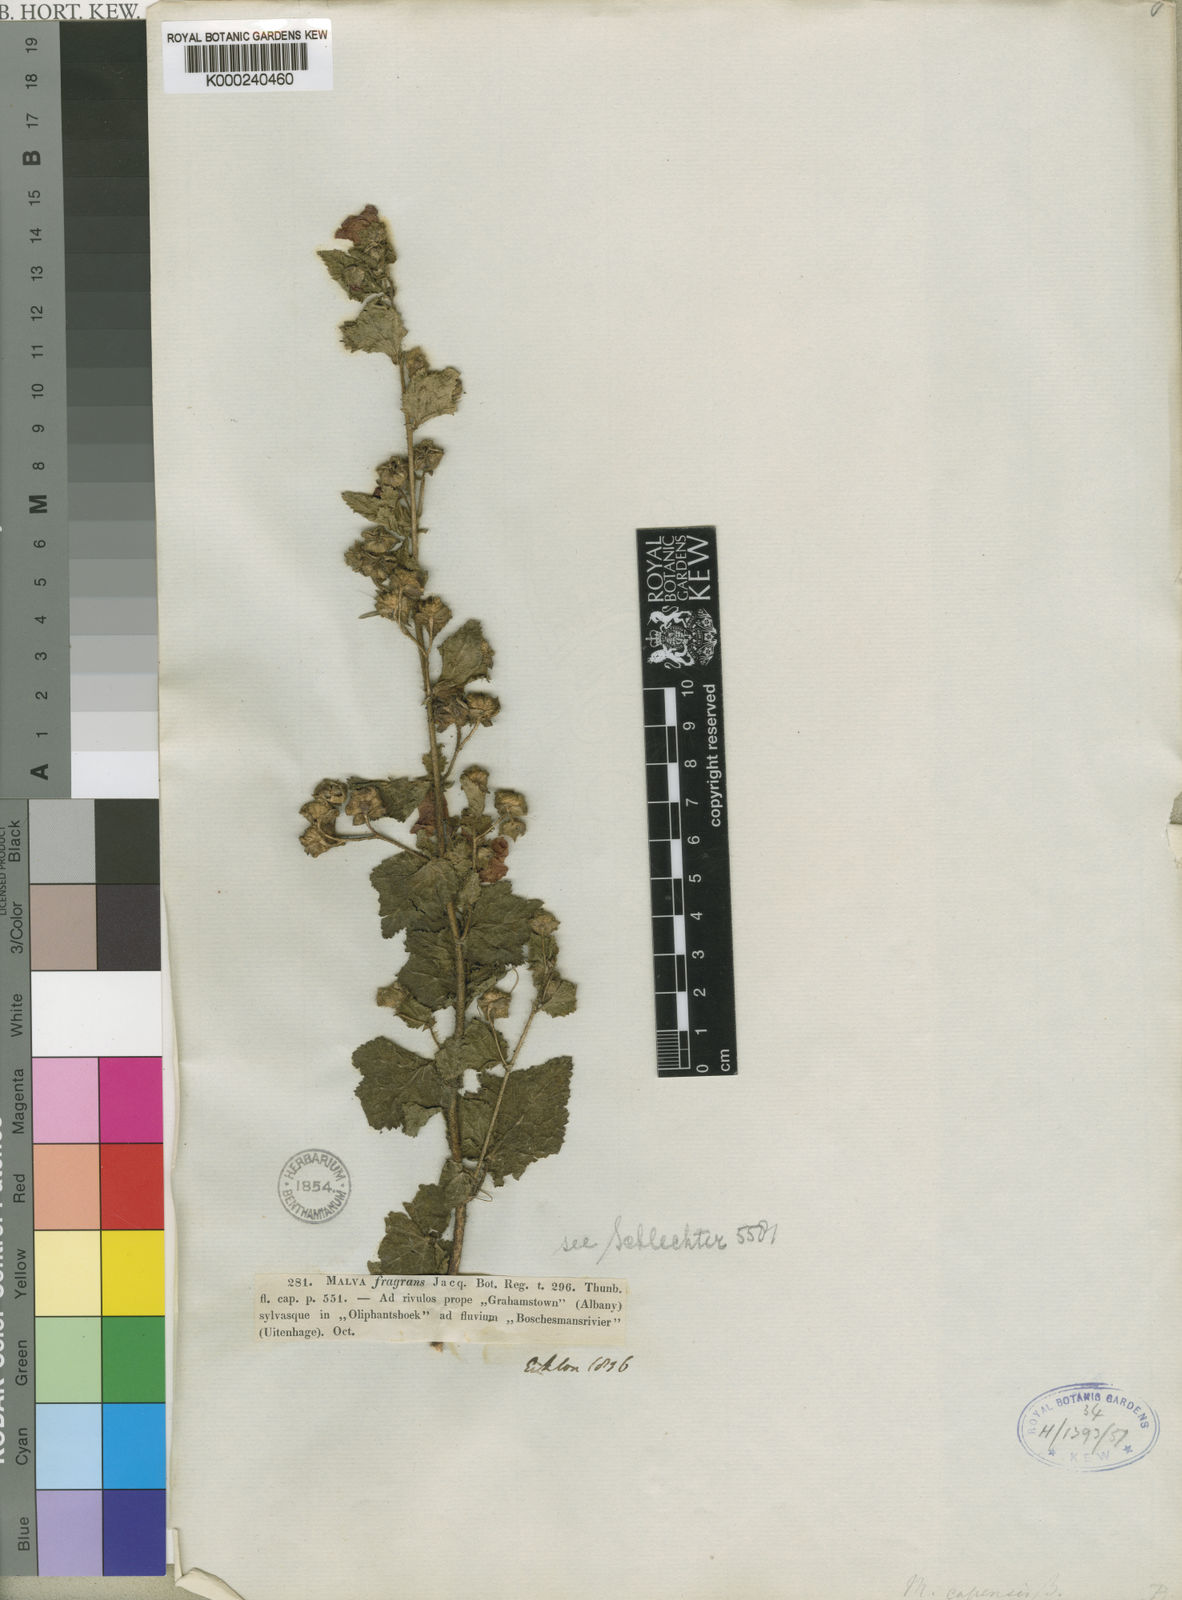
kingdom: Plantae
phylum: Tracheophyta
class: Magnoliopsida
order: Malvales
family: Malvaceae
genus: Anisodontea
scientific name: Anisodontea scabrosa
